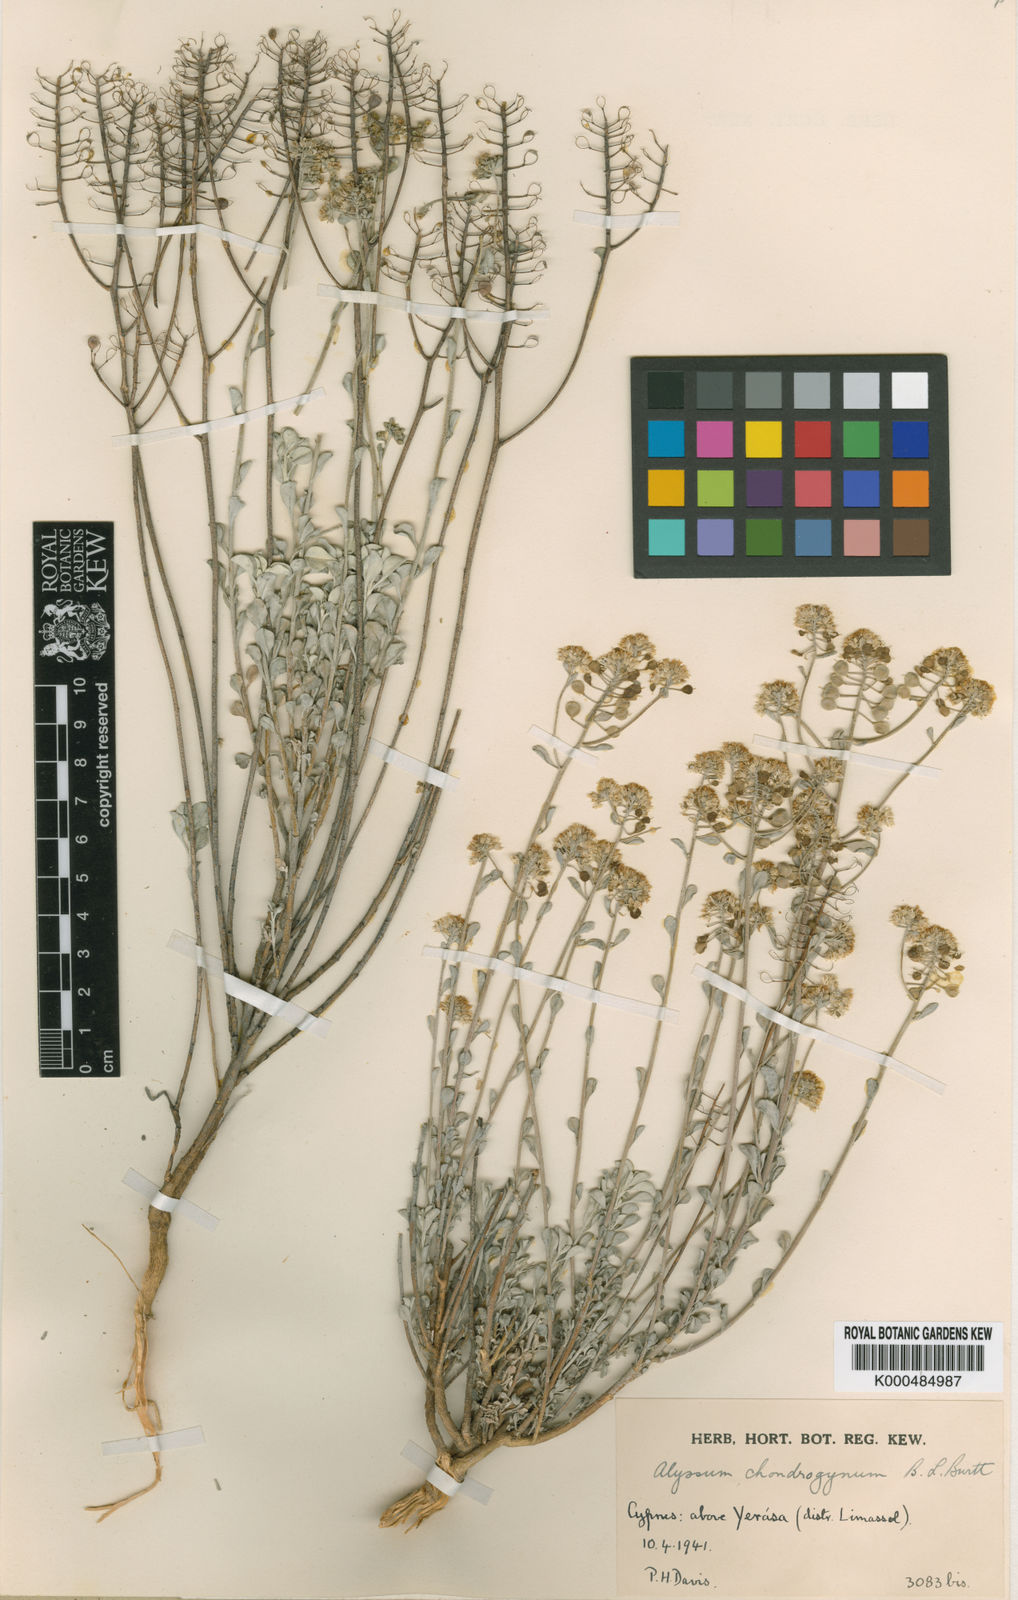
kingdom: Plantae
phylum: Tracheophyta
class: Magnoliopsida
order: Brassicales
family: Brassicaceae
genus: Odontarrhena
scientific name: Odontarrhena chondrogyna
